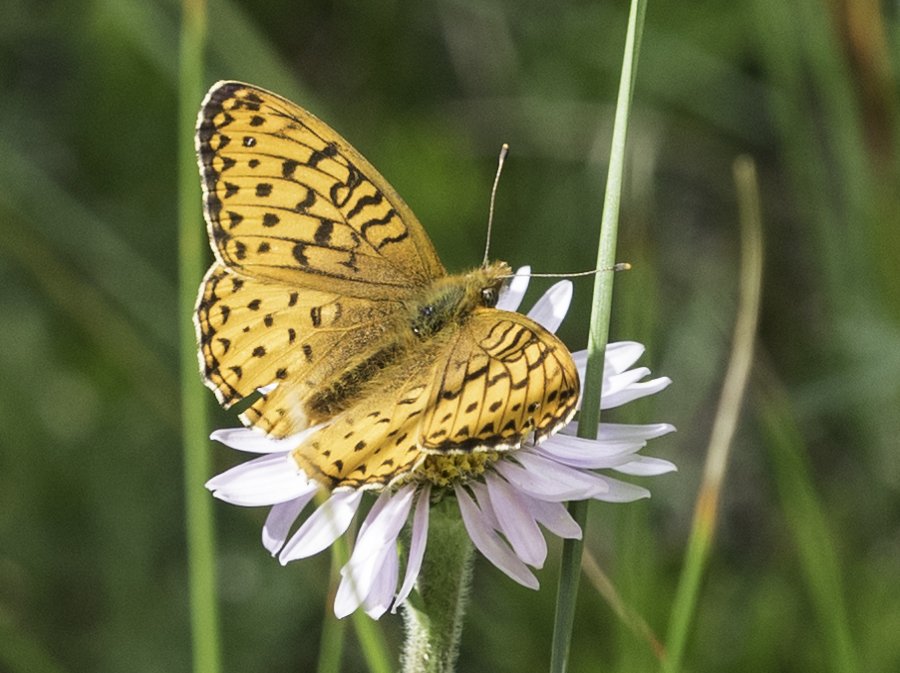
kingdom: Animalia
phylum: Arthropoda
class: Insecta
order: Lepidoptera
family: Nymphalidae
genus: Speyeria
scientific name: Speyeria atlantis
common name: Atlantis Fritillary
